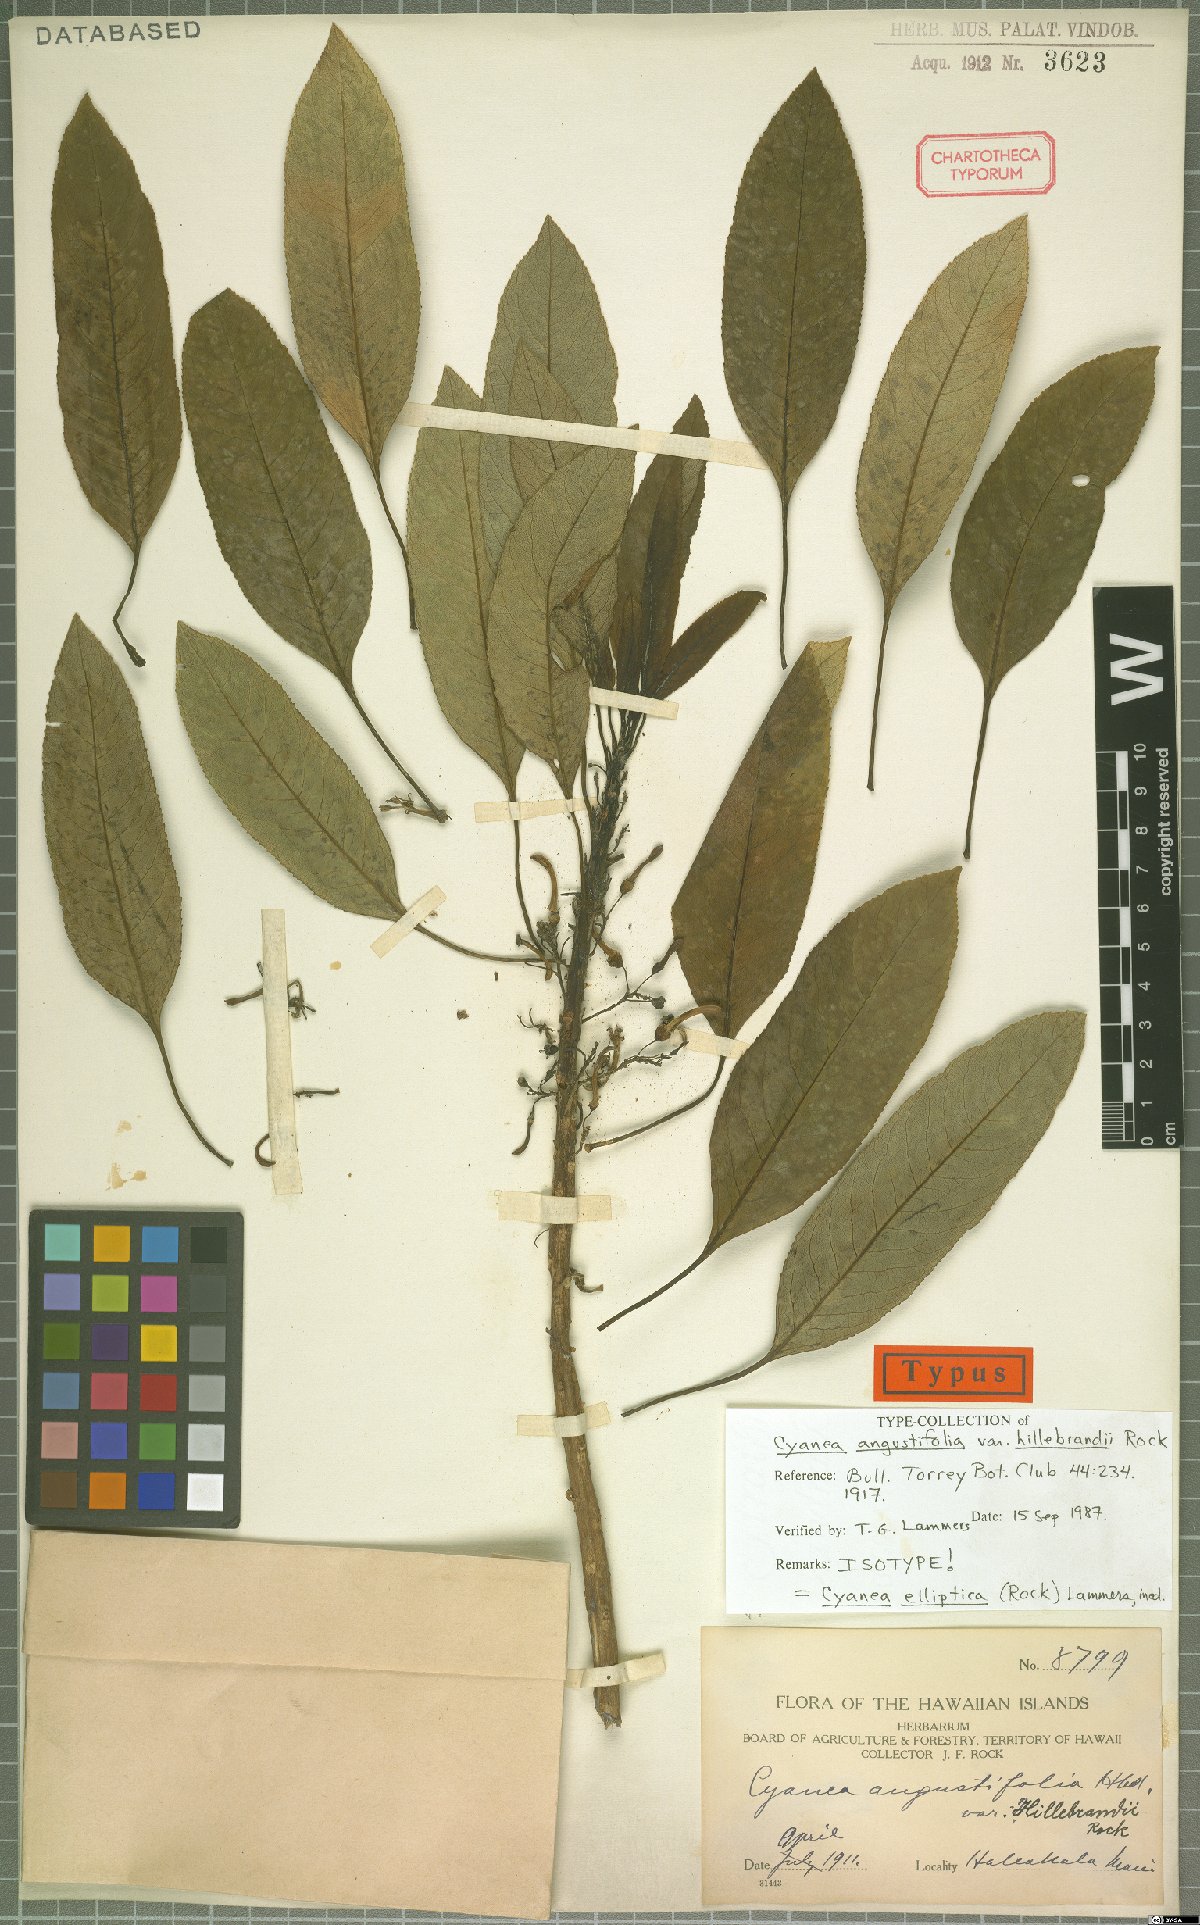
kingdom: Plantae
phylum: Tracheophyta
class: Magnoliopsida
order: Asterales
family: Campanulaceae
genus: Cyanea
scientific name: Cyanea elliptica
